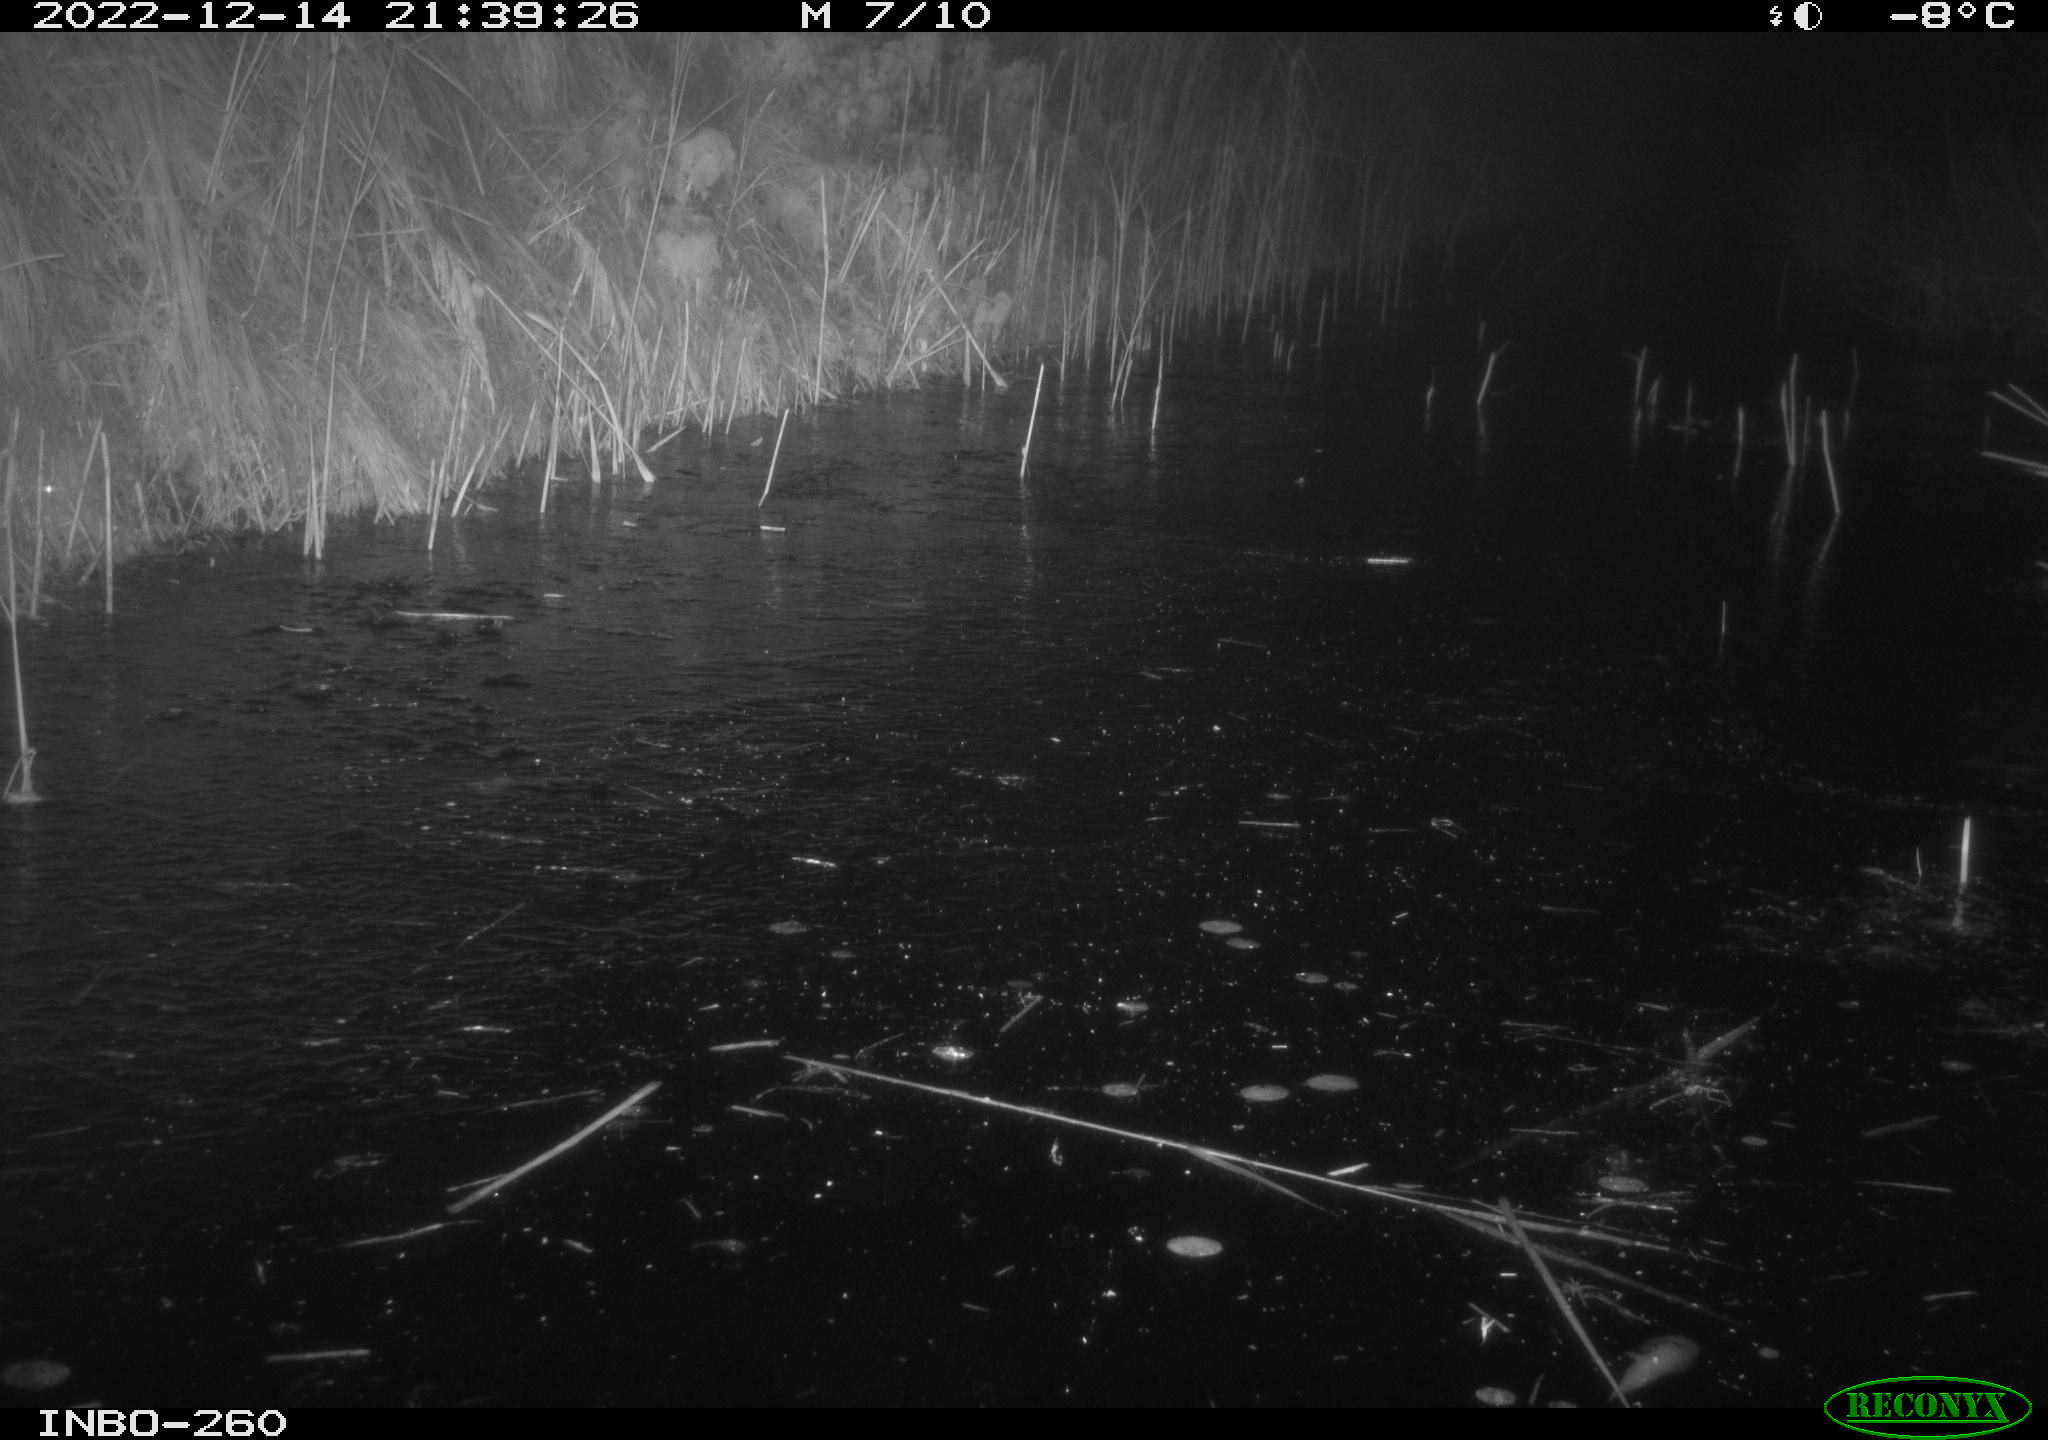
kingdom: Animalia
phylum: Chordata
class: Mammalia
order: Rodentia
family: Muridae
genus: Rattus
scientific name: Rattus norvegicus
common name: Brown rat
